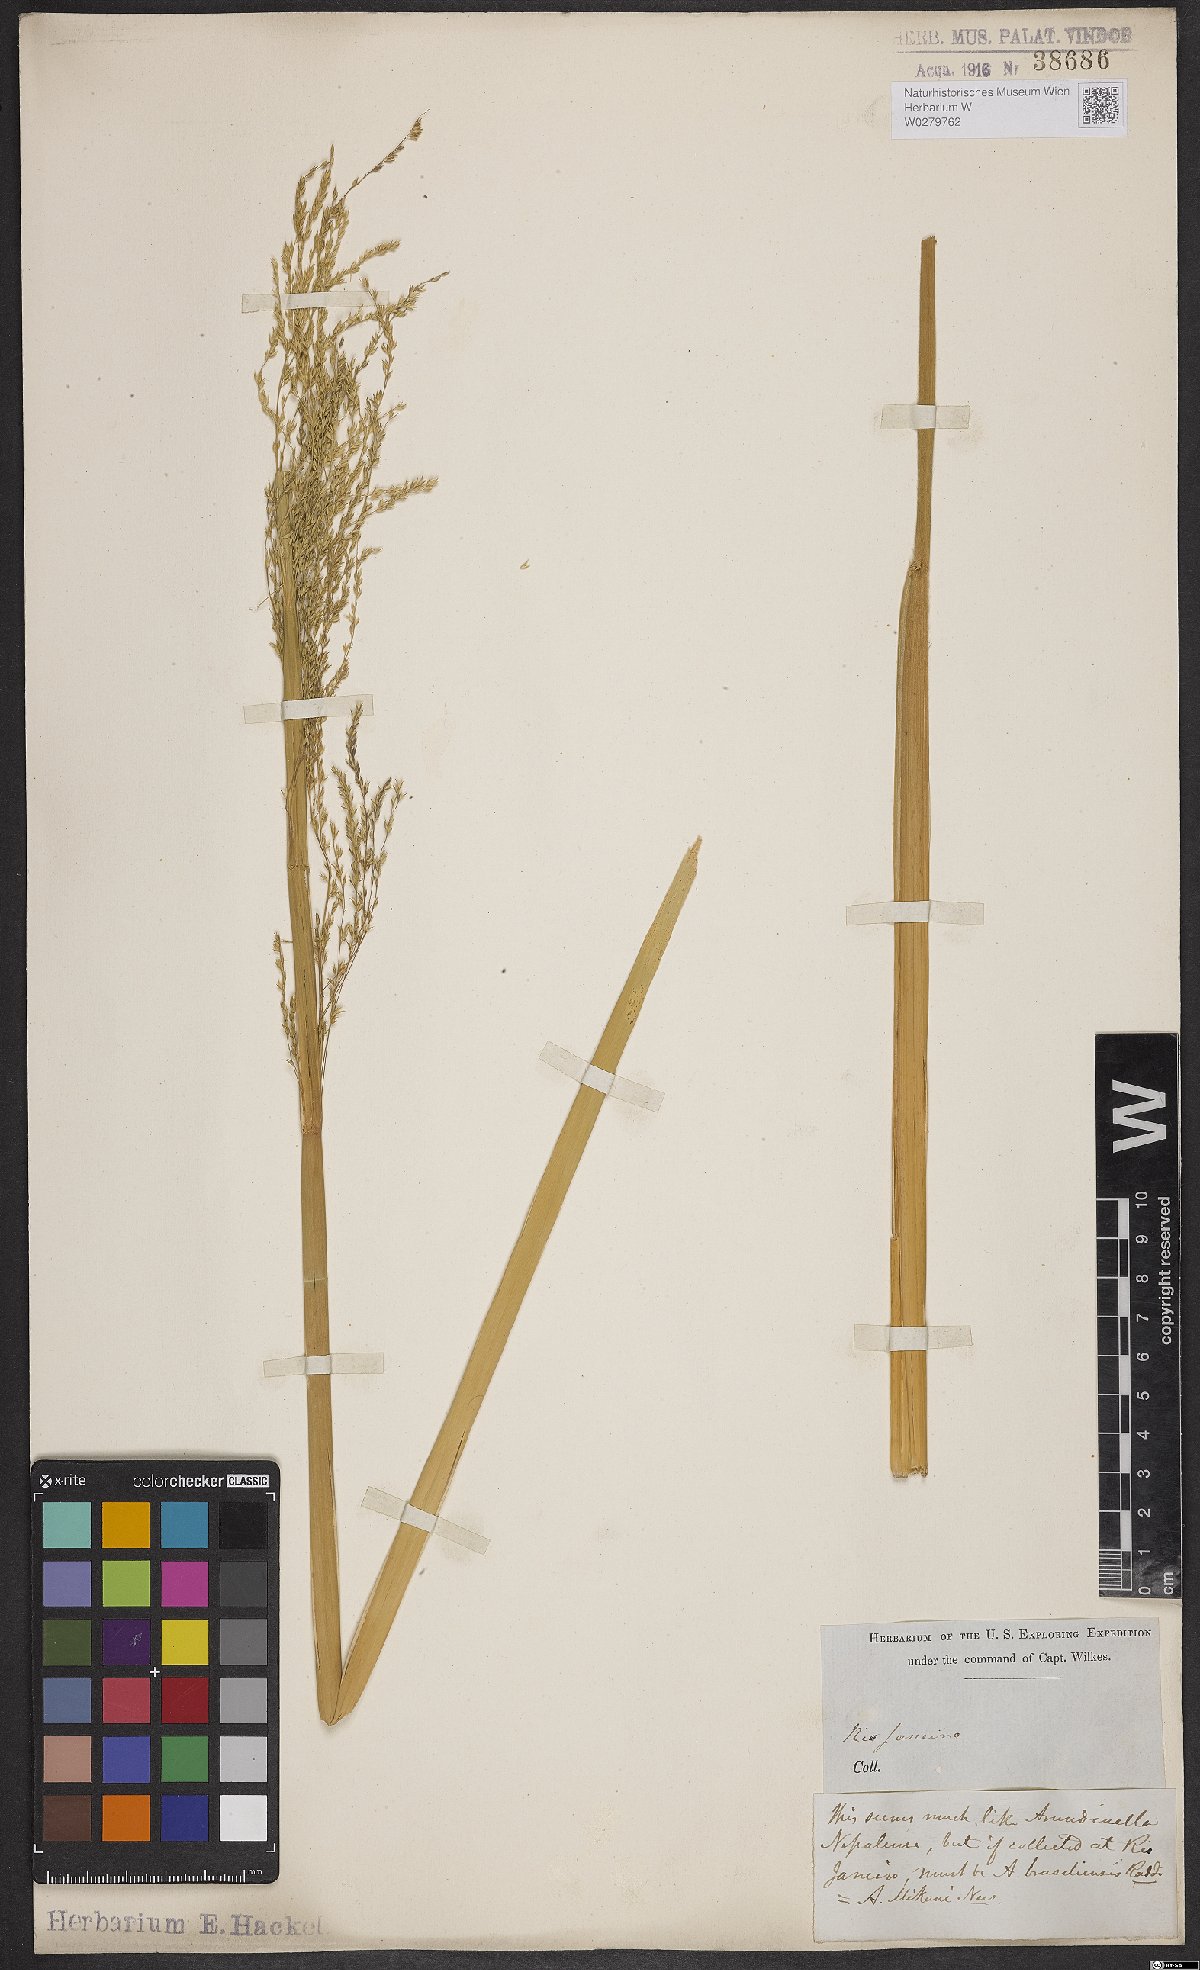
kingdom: Plantae
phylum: Tracheophyta
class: Liliopsida
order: Poales
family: Poaceae
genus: Arundinella
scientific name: Arundinella hispida
